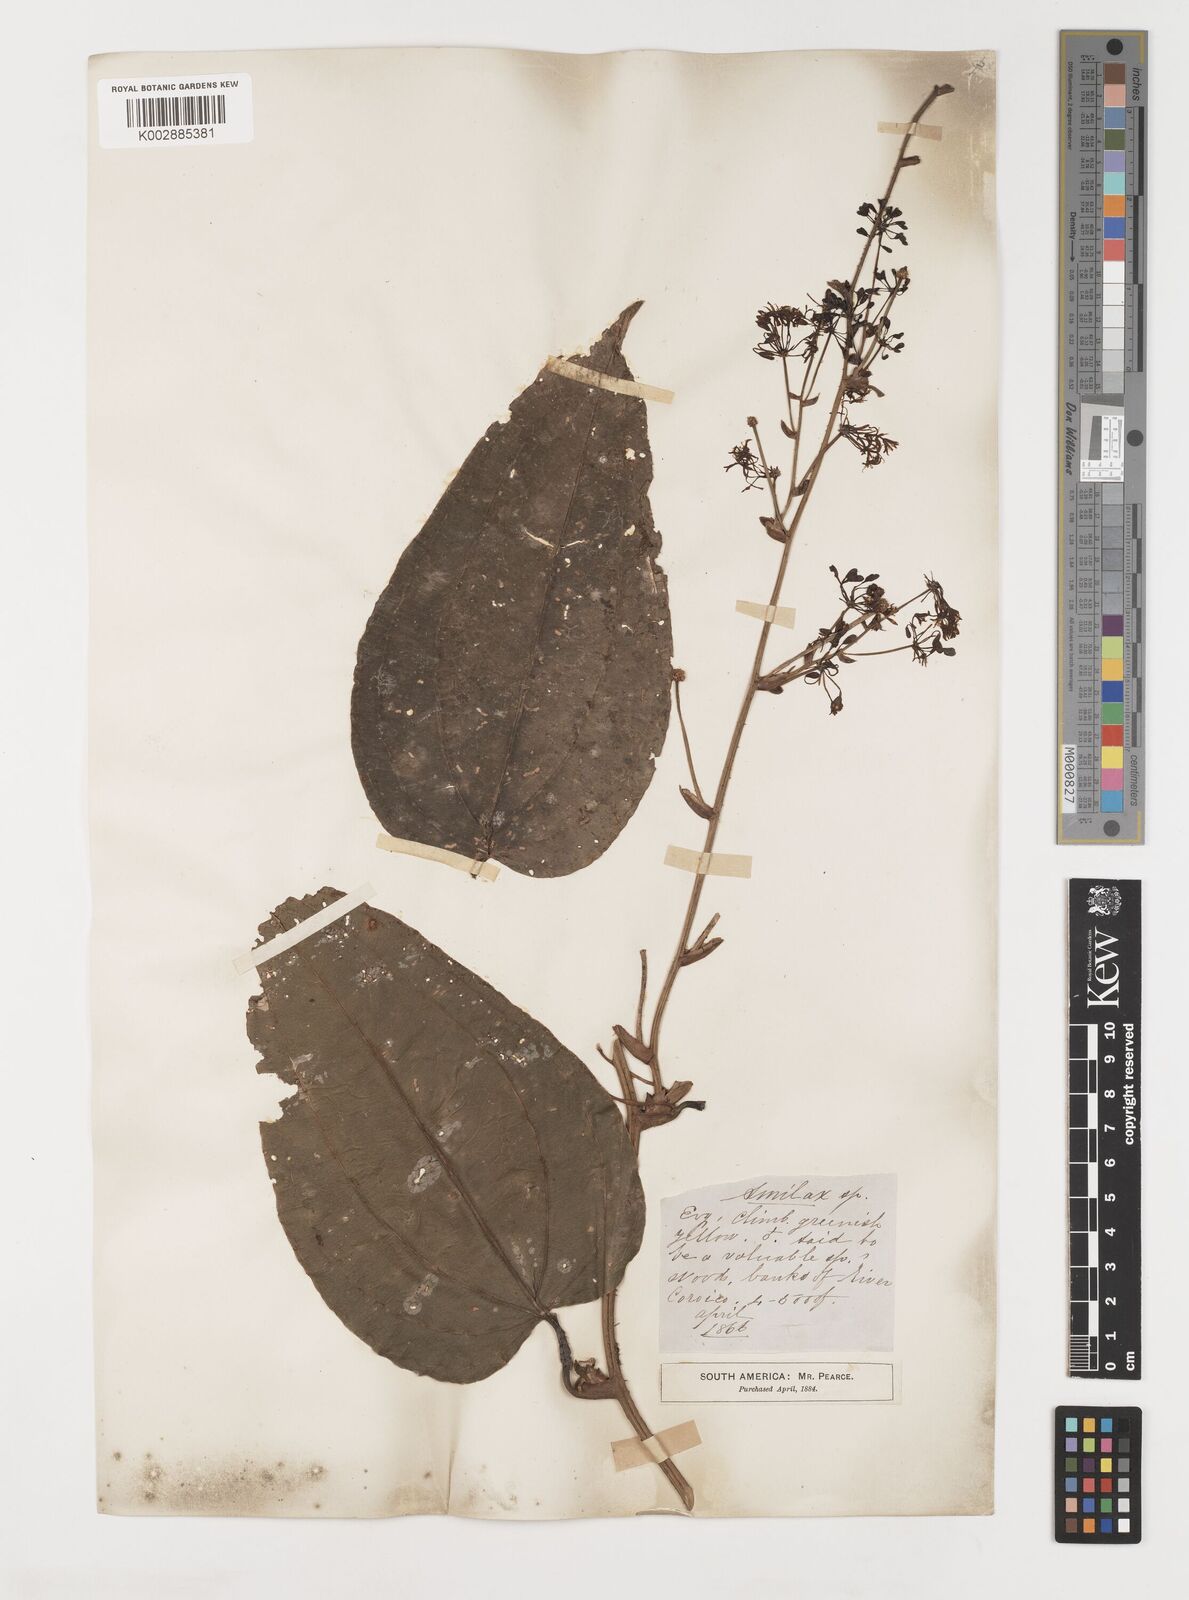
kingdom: Plantae
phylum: Tracheophyta
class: Liliopsida
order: Liliales
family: Smilacaceae
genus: Smilax
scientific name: Smilax
